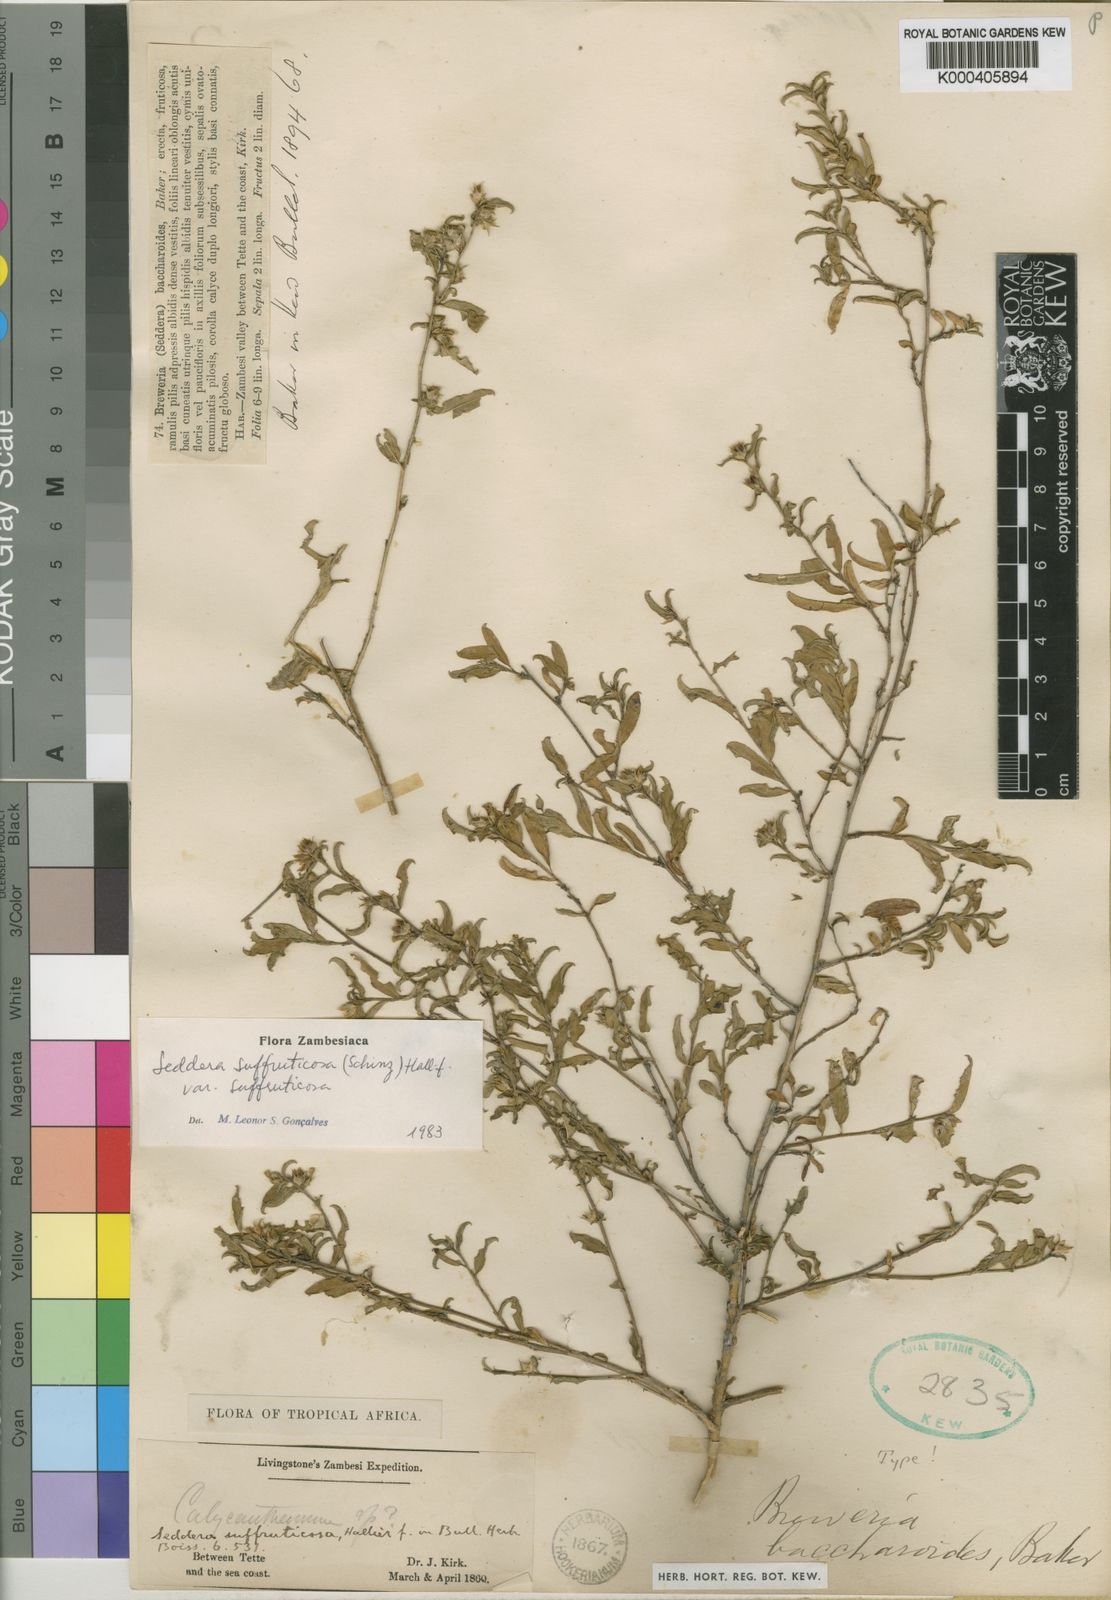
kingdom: Plantae
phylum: Tracheophyta
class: Magnoliopsida
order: Solanales
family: Convolvulaceae
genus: Seddera
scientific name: Seddera suffruticosa
